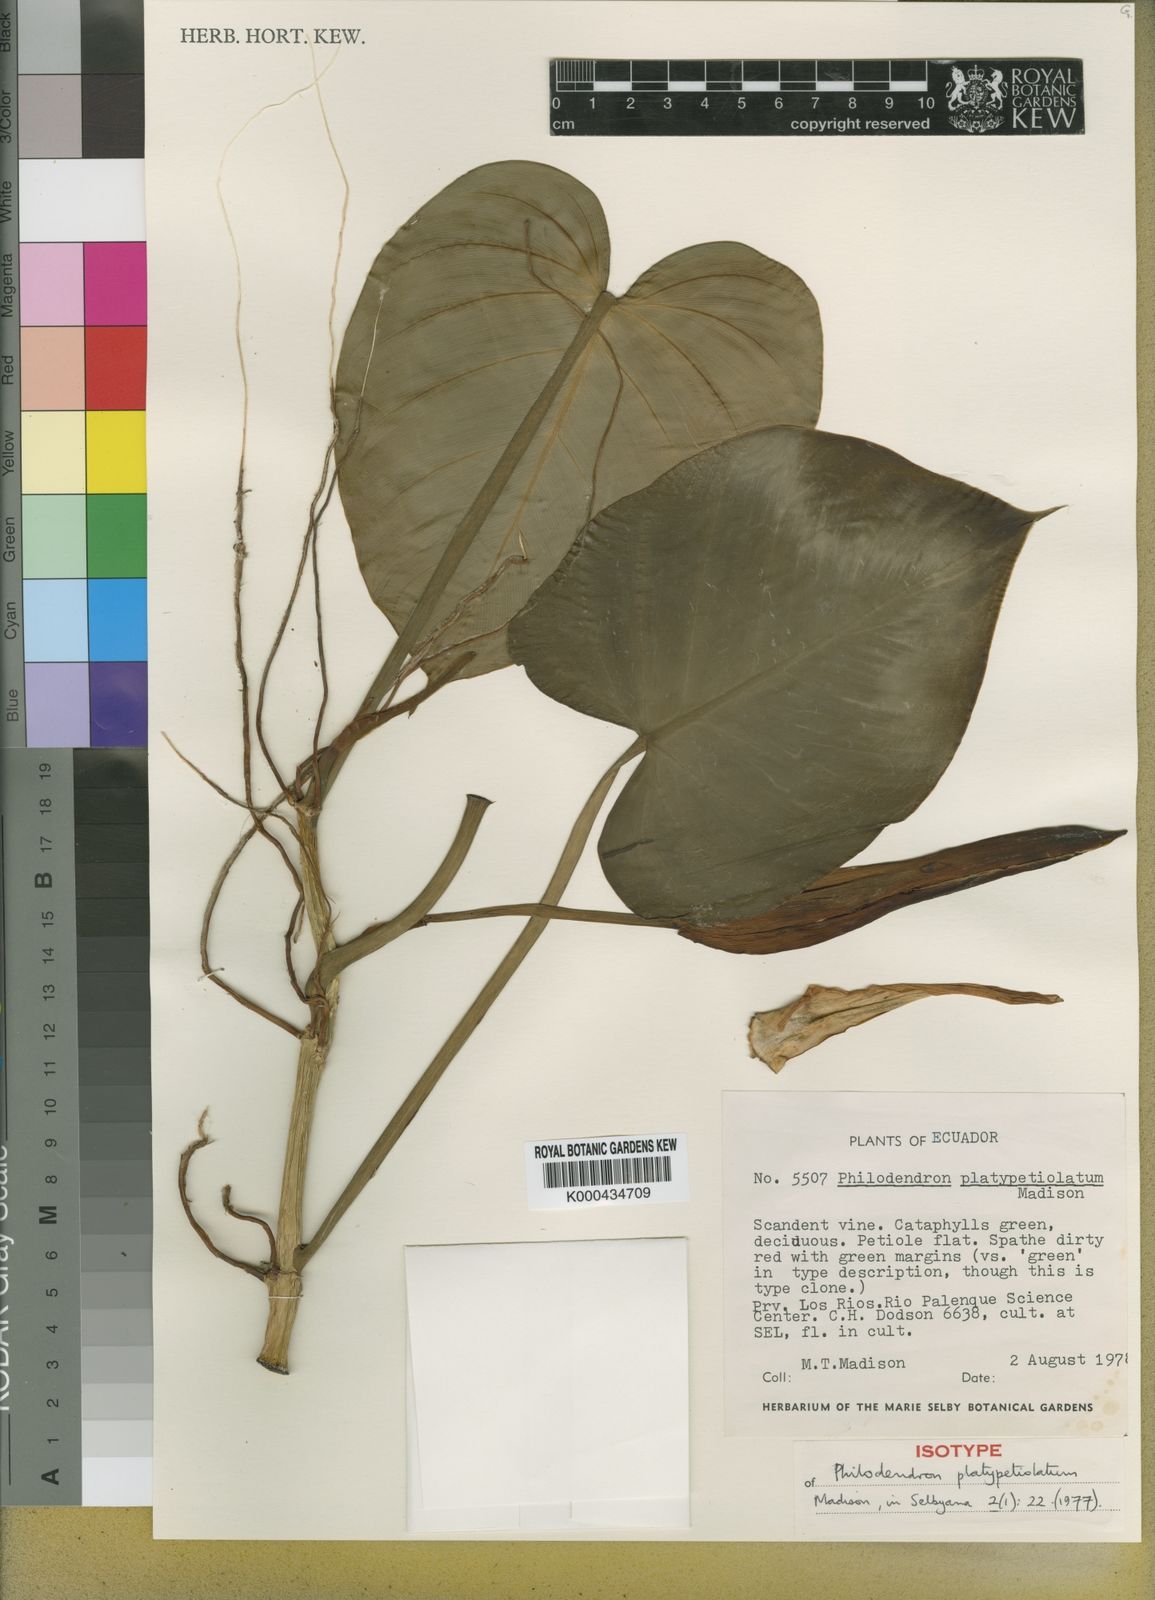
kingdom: Plantae
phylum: Tracheophyta
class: Liliopsida
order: Alismatales
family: Araceae
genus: Philodendron
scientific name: Philodendron platypetiolatum
